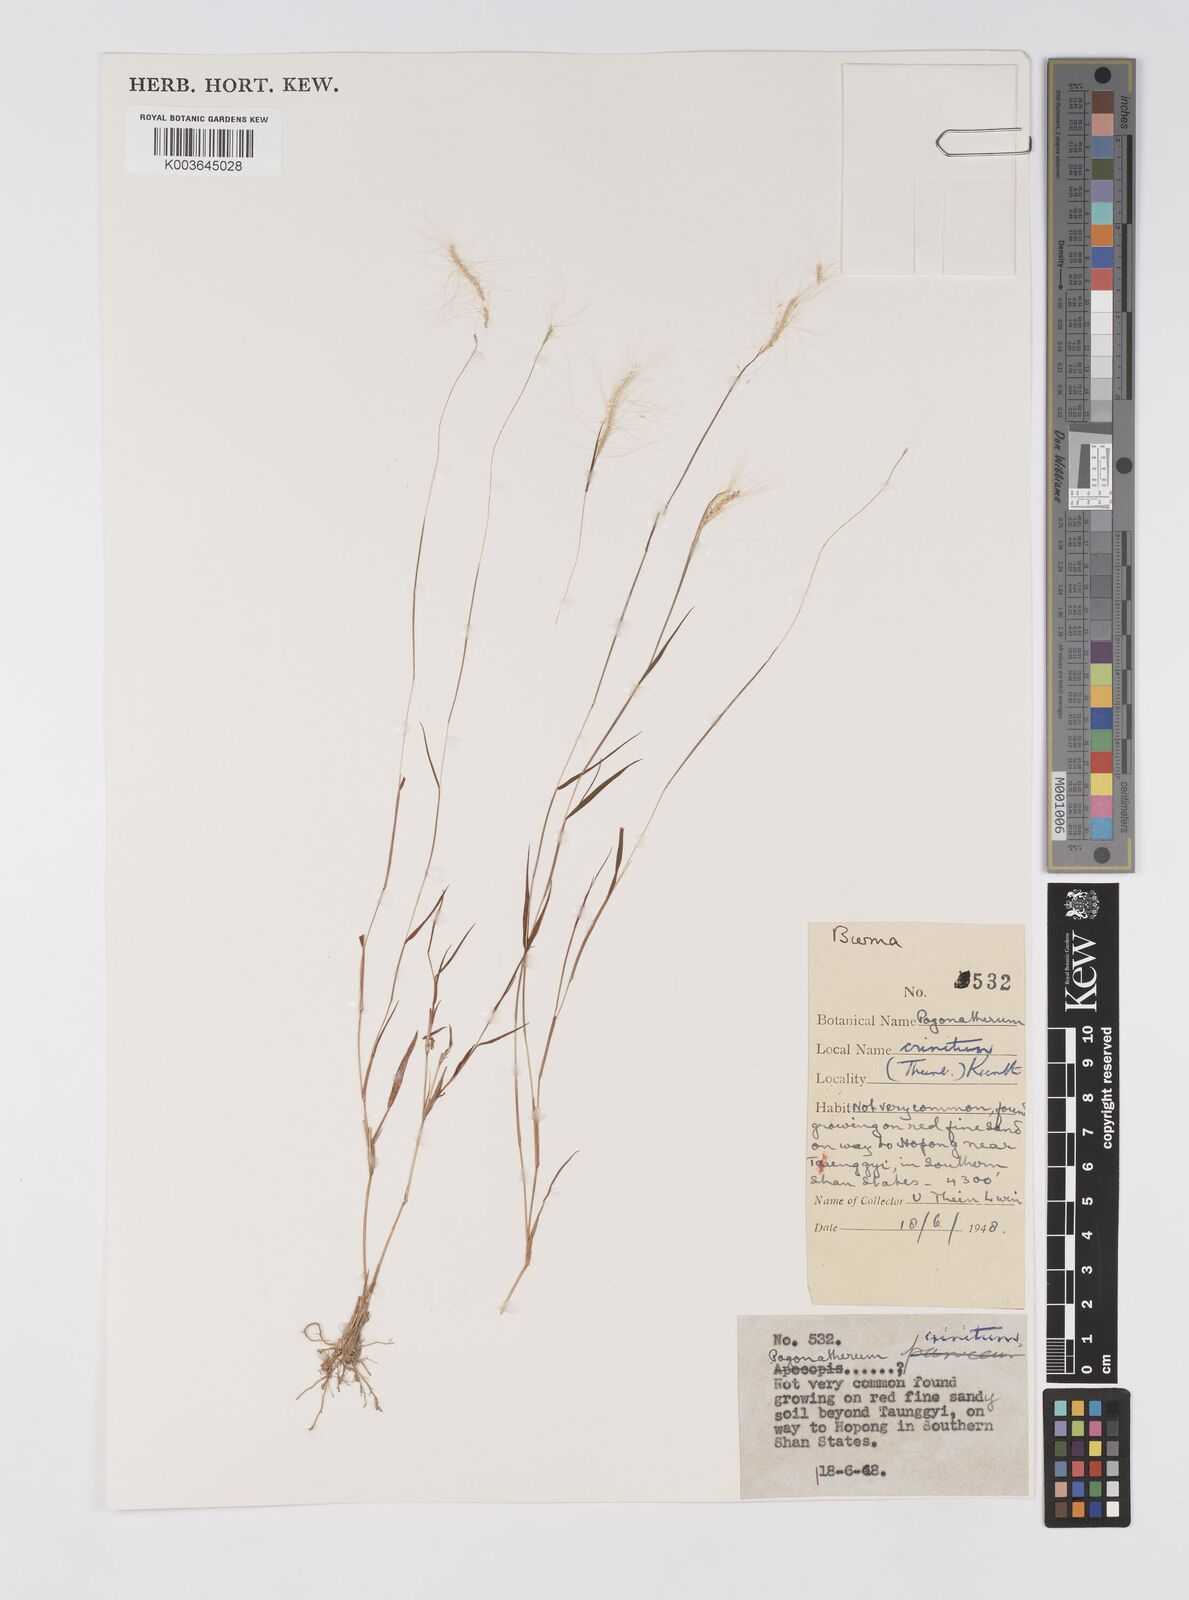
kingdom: Plantae
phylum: Tracheophyta
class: Liliopsida
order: Poales
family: Poaceae
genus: Pogonatherum
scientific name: Pogonatherum crinitum
